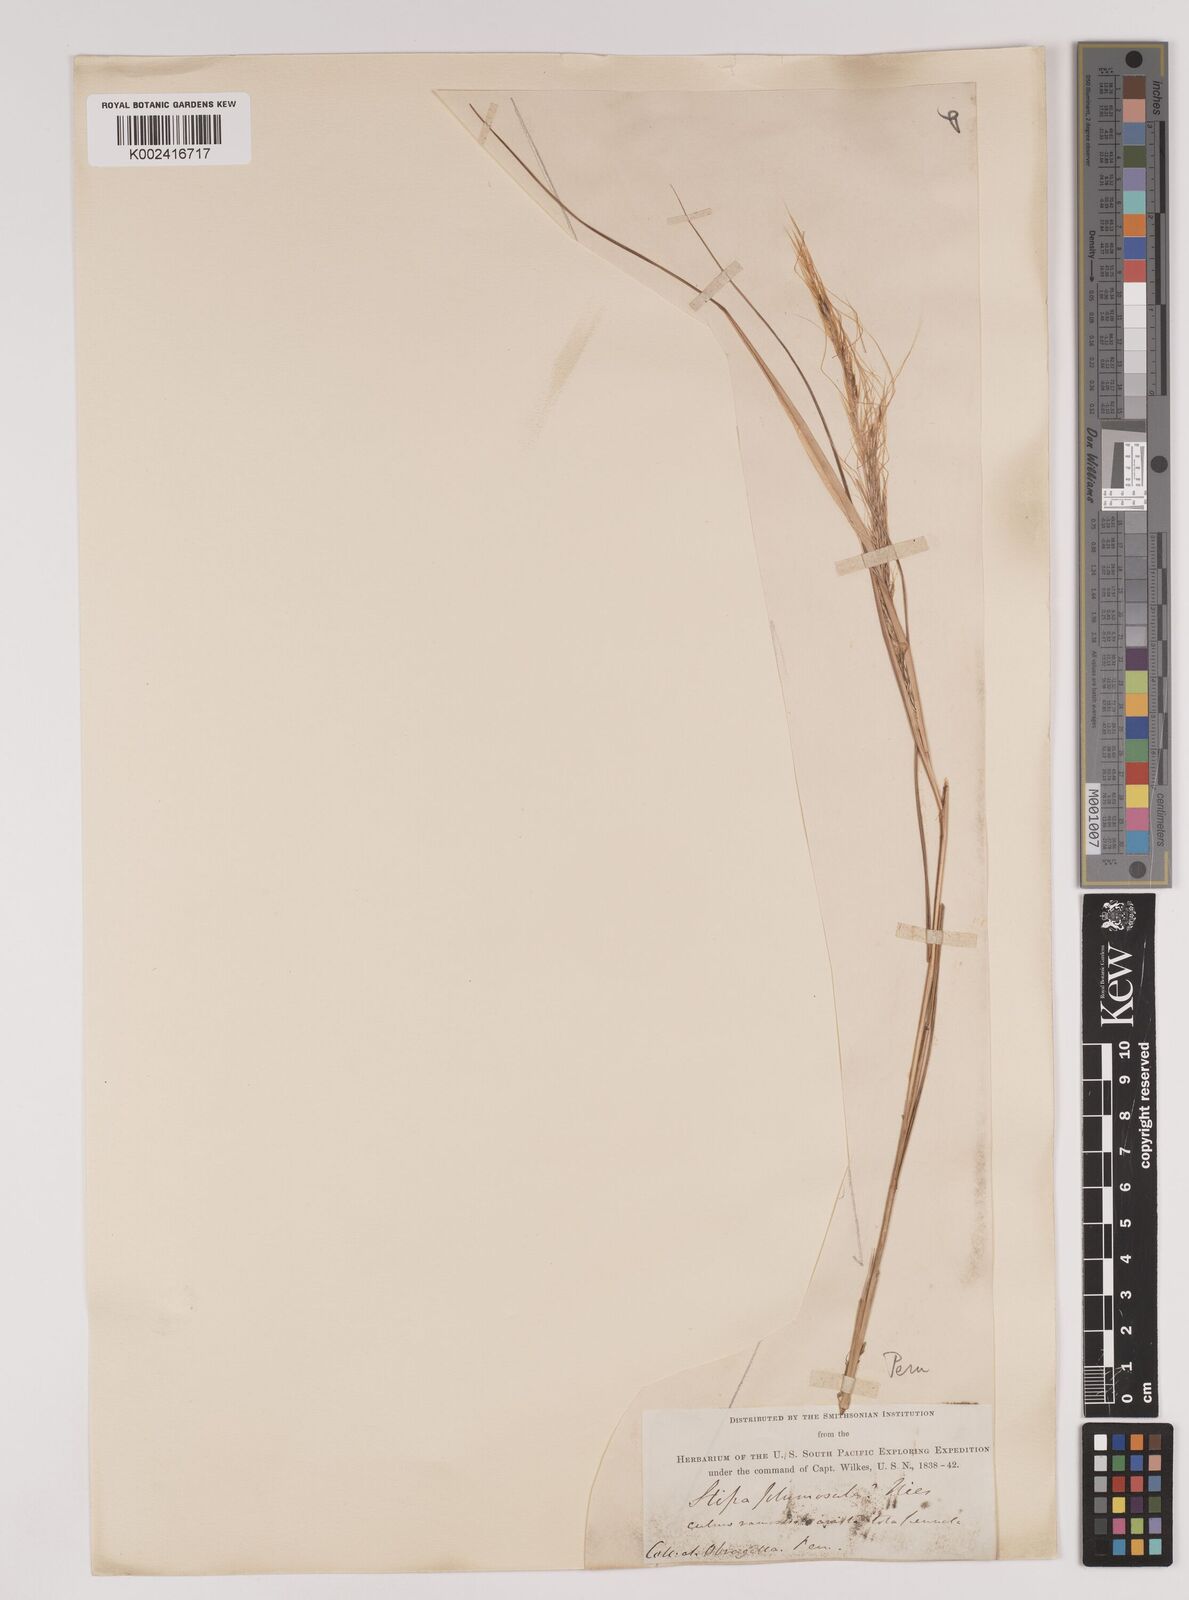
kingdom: Plantae
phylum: Tracheophyta
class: Liliopsida
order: Poales
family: Poaceae
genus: Stipa
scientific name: Stipa plumosa
